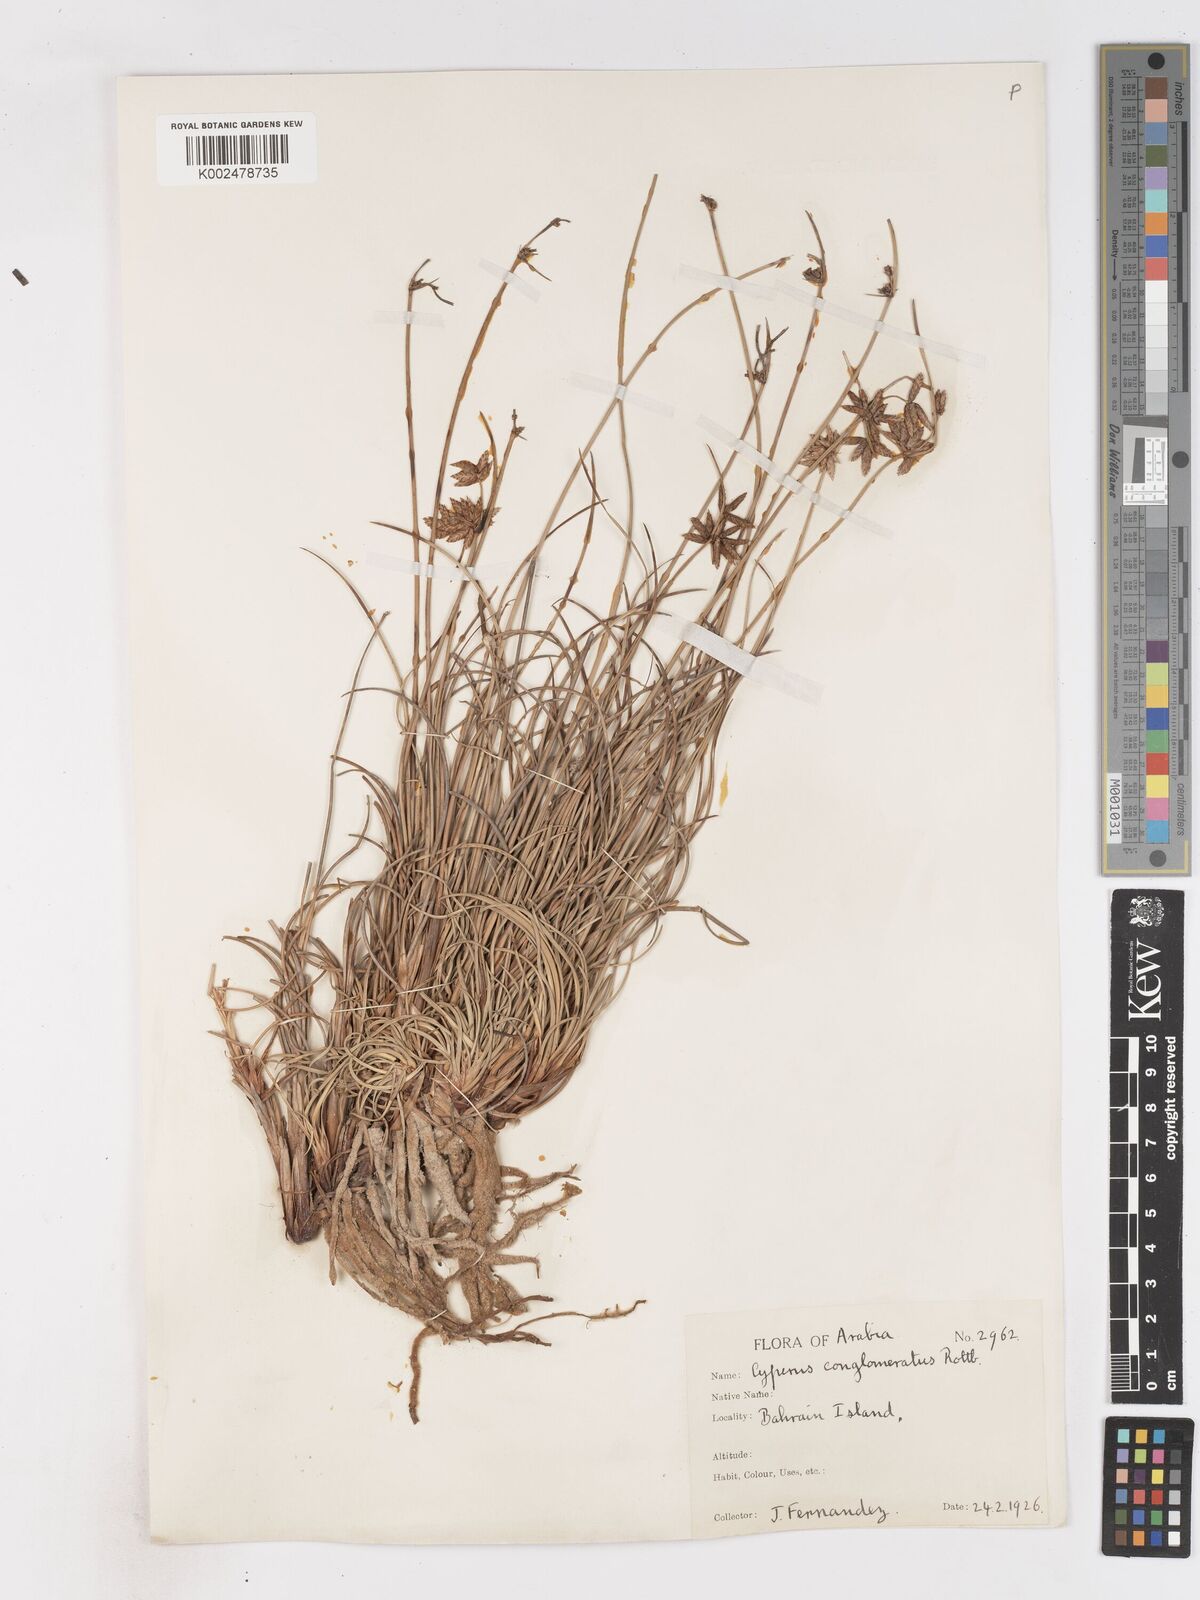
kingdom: Plantae
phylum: Tracheophyta
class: Liliopsida
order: Poales
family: Cyperaceae
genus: Cyperus
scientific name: Cyperus conglomeratus
